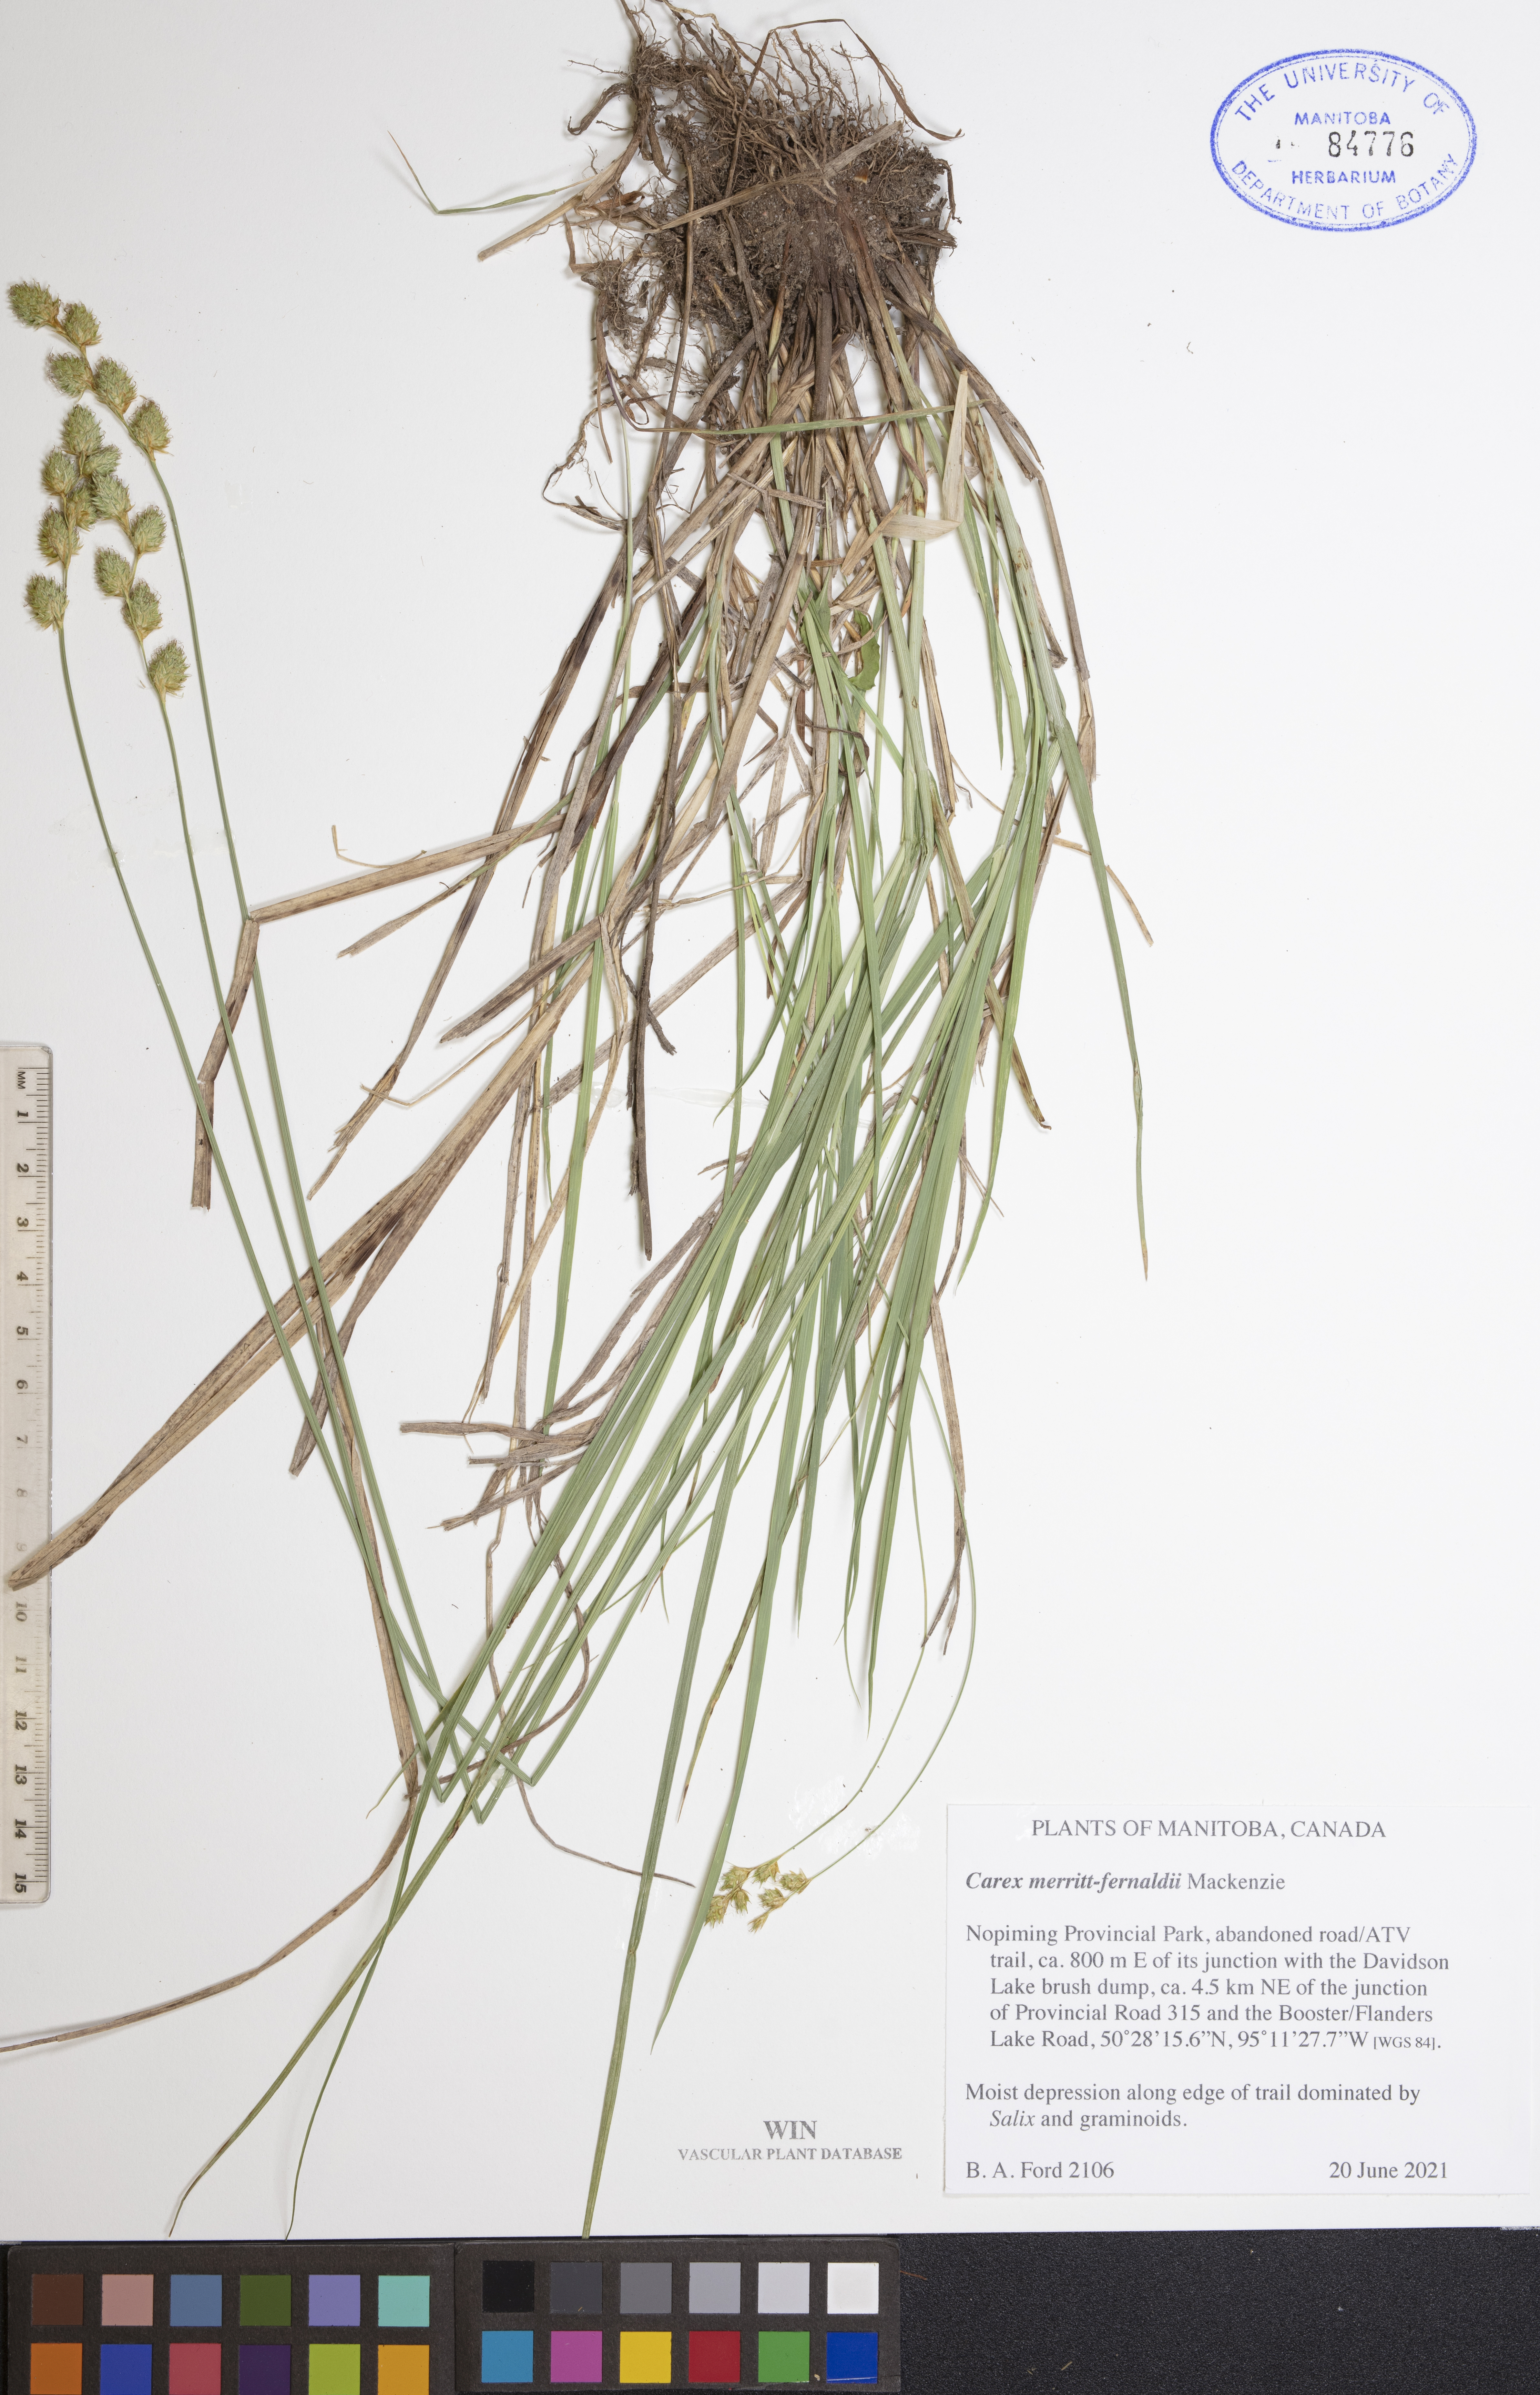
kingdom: Plantae
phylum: Tracheophyta
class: Liliopsida
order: Poales
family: Cyperaceae
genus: Carex
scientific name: Carex merritt-fernaldii
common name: Fernald's oval sedge
